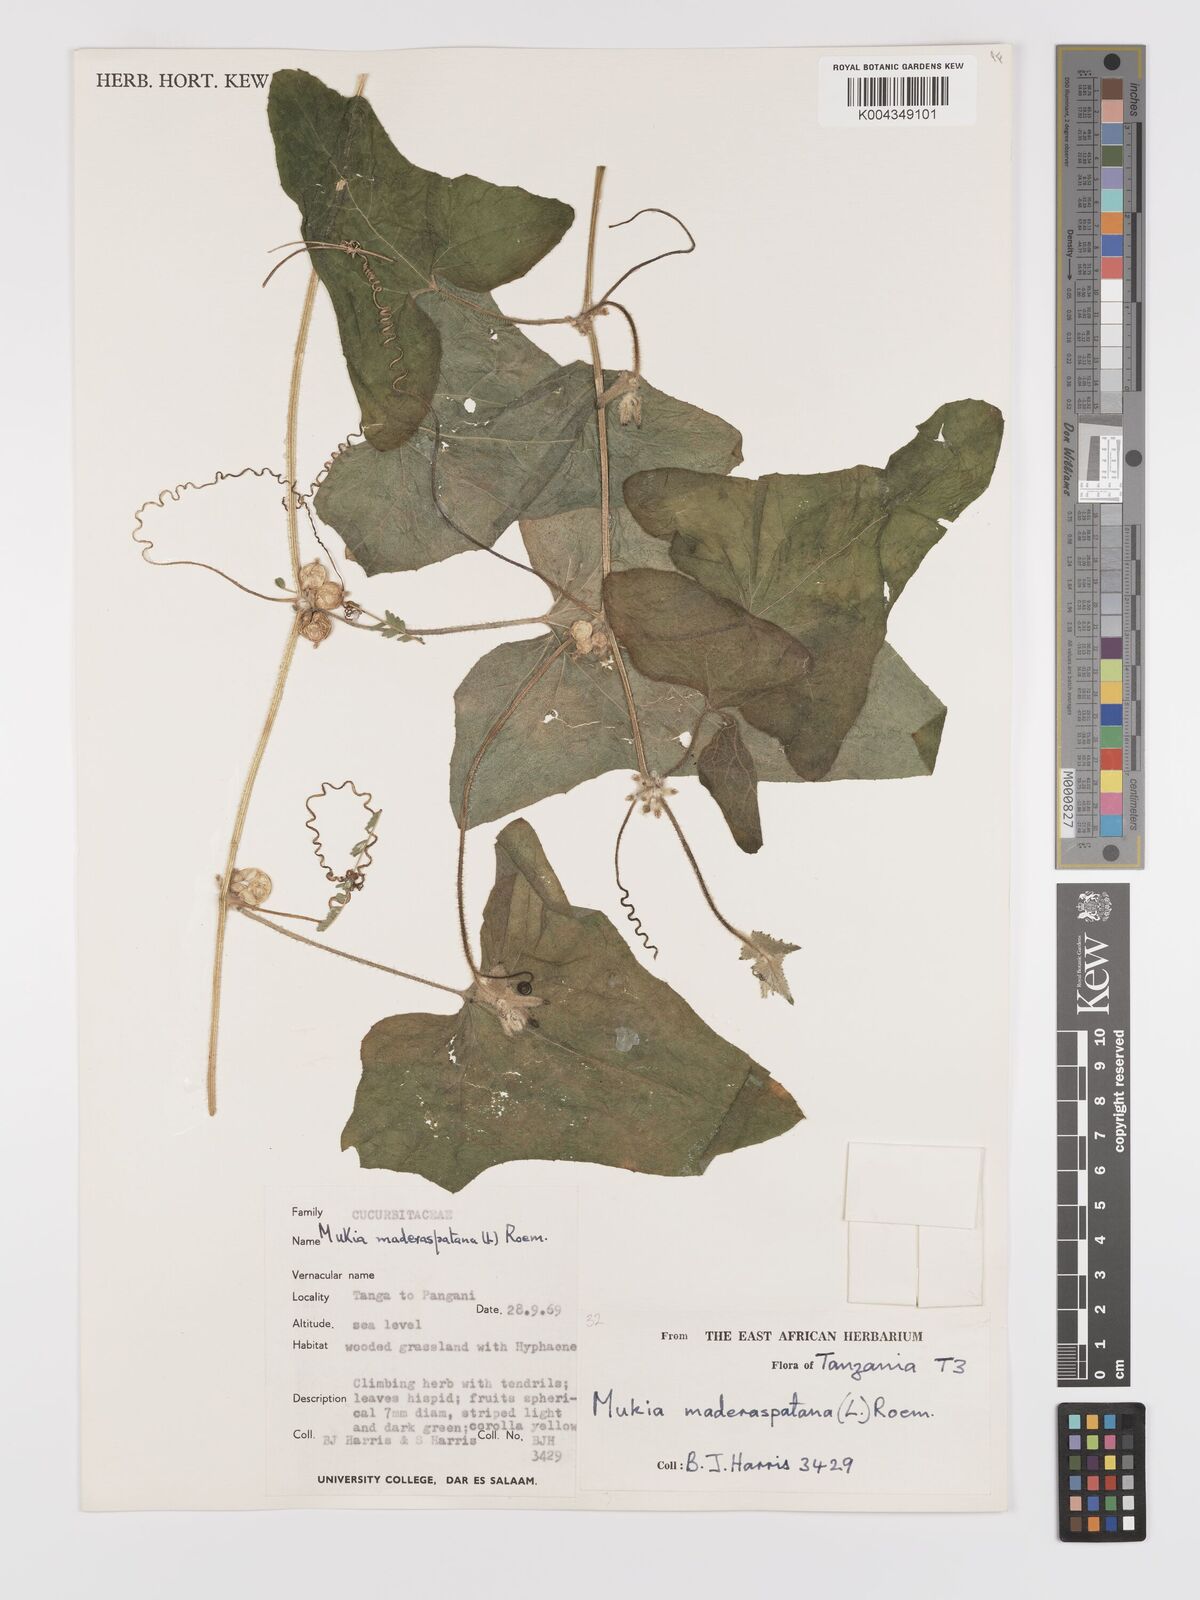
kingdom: Plantae
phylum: Tracheophyta
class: Magnoliopsida
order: Cucurbitales
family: Cucurbitaceae
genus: Cucumis
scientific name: Cucumis maderaspatanus
